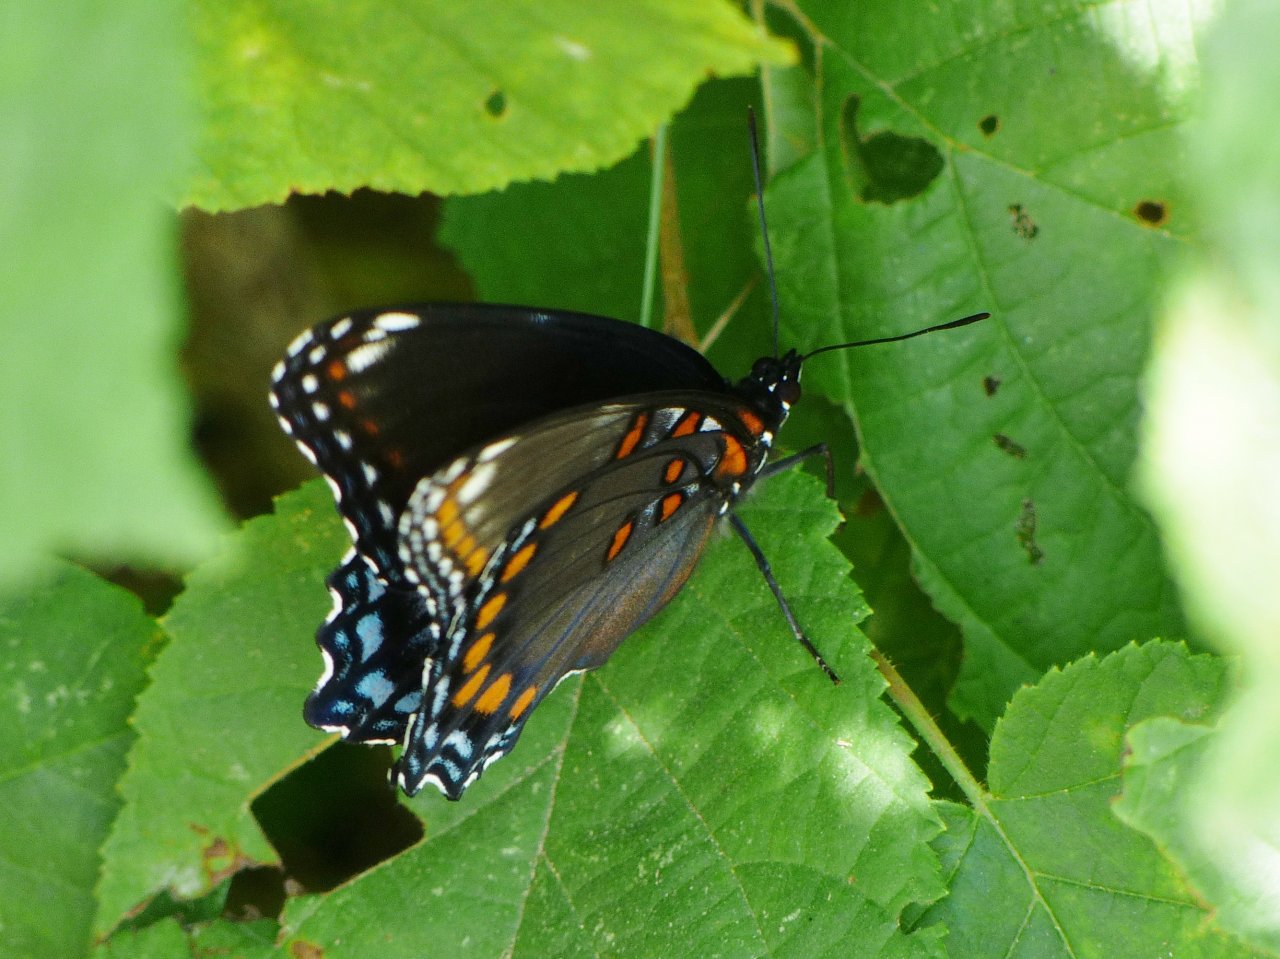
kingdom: Animalia
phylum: Arthropoda
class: Insecta
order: Lepidoptera
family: Nymphalidae
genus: Limenitis
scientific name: Limenitis astyanax
